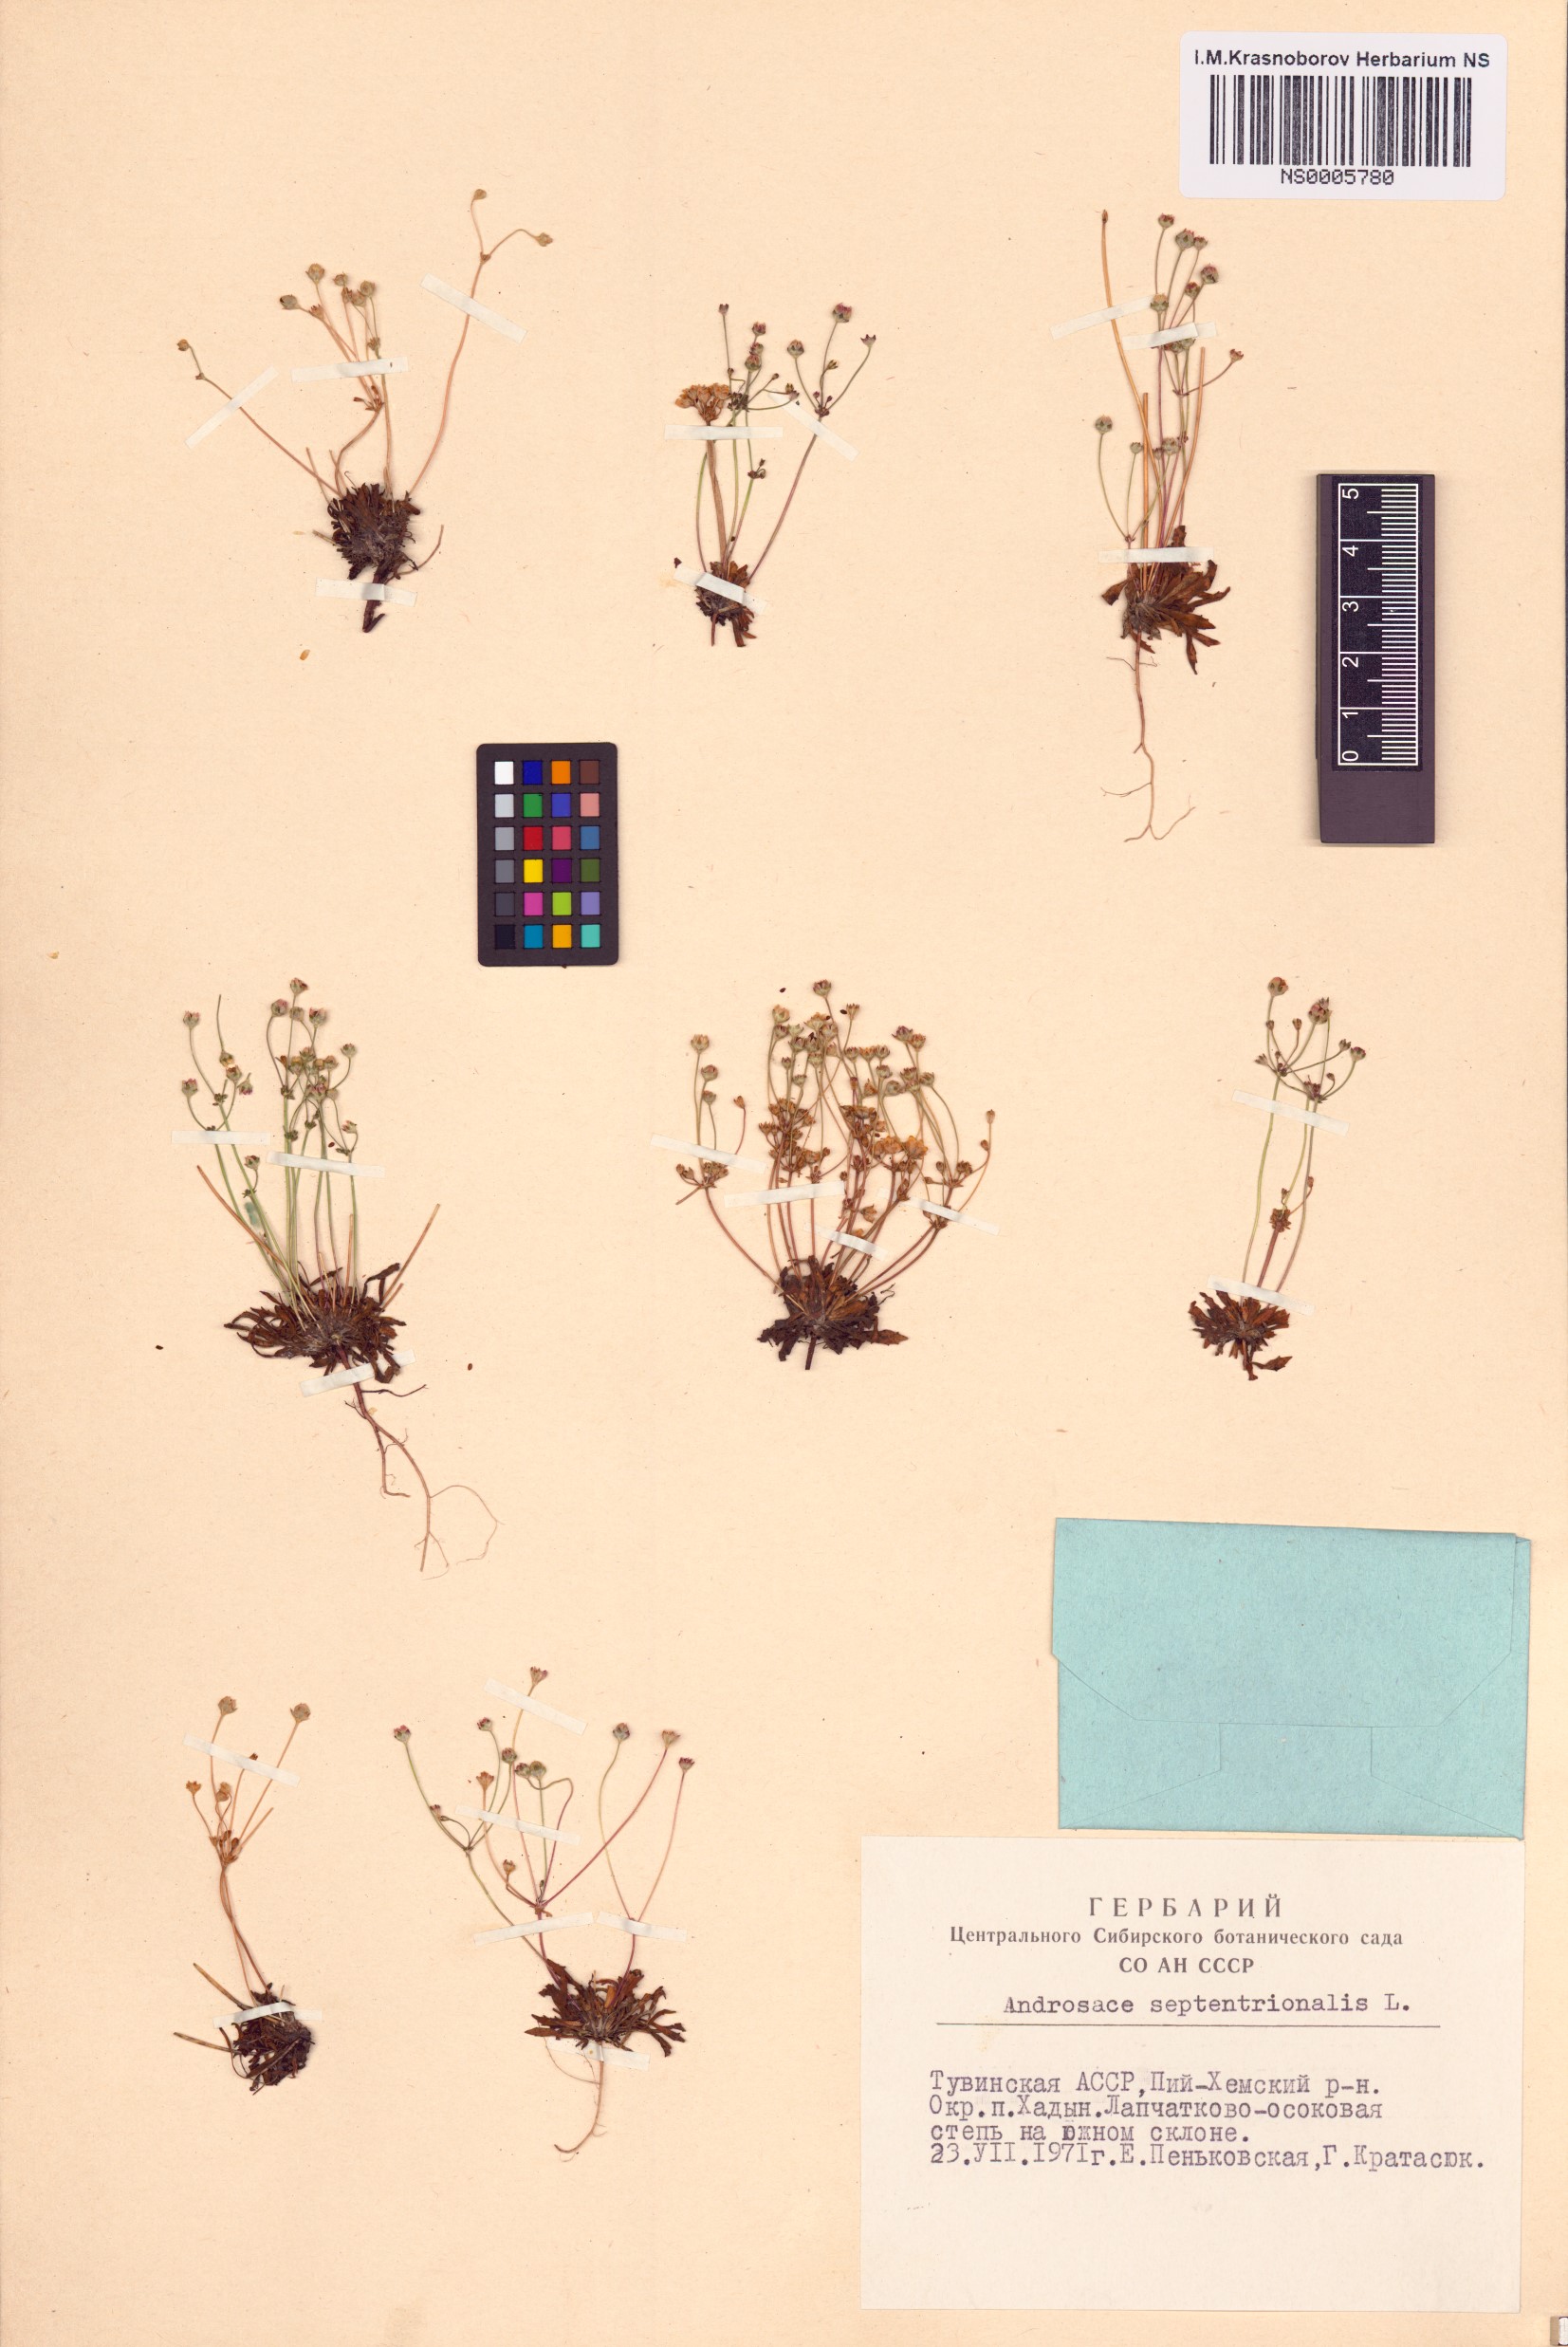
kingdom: Plantae
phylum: Tracheophyta
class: Magnoliopsida
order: Ericales
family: Primulaceae
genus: Androsace
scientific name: Androsace septentrionalis
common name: Hairy northern fairy-candelabra
